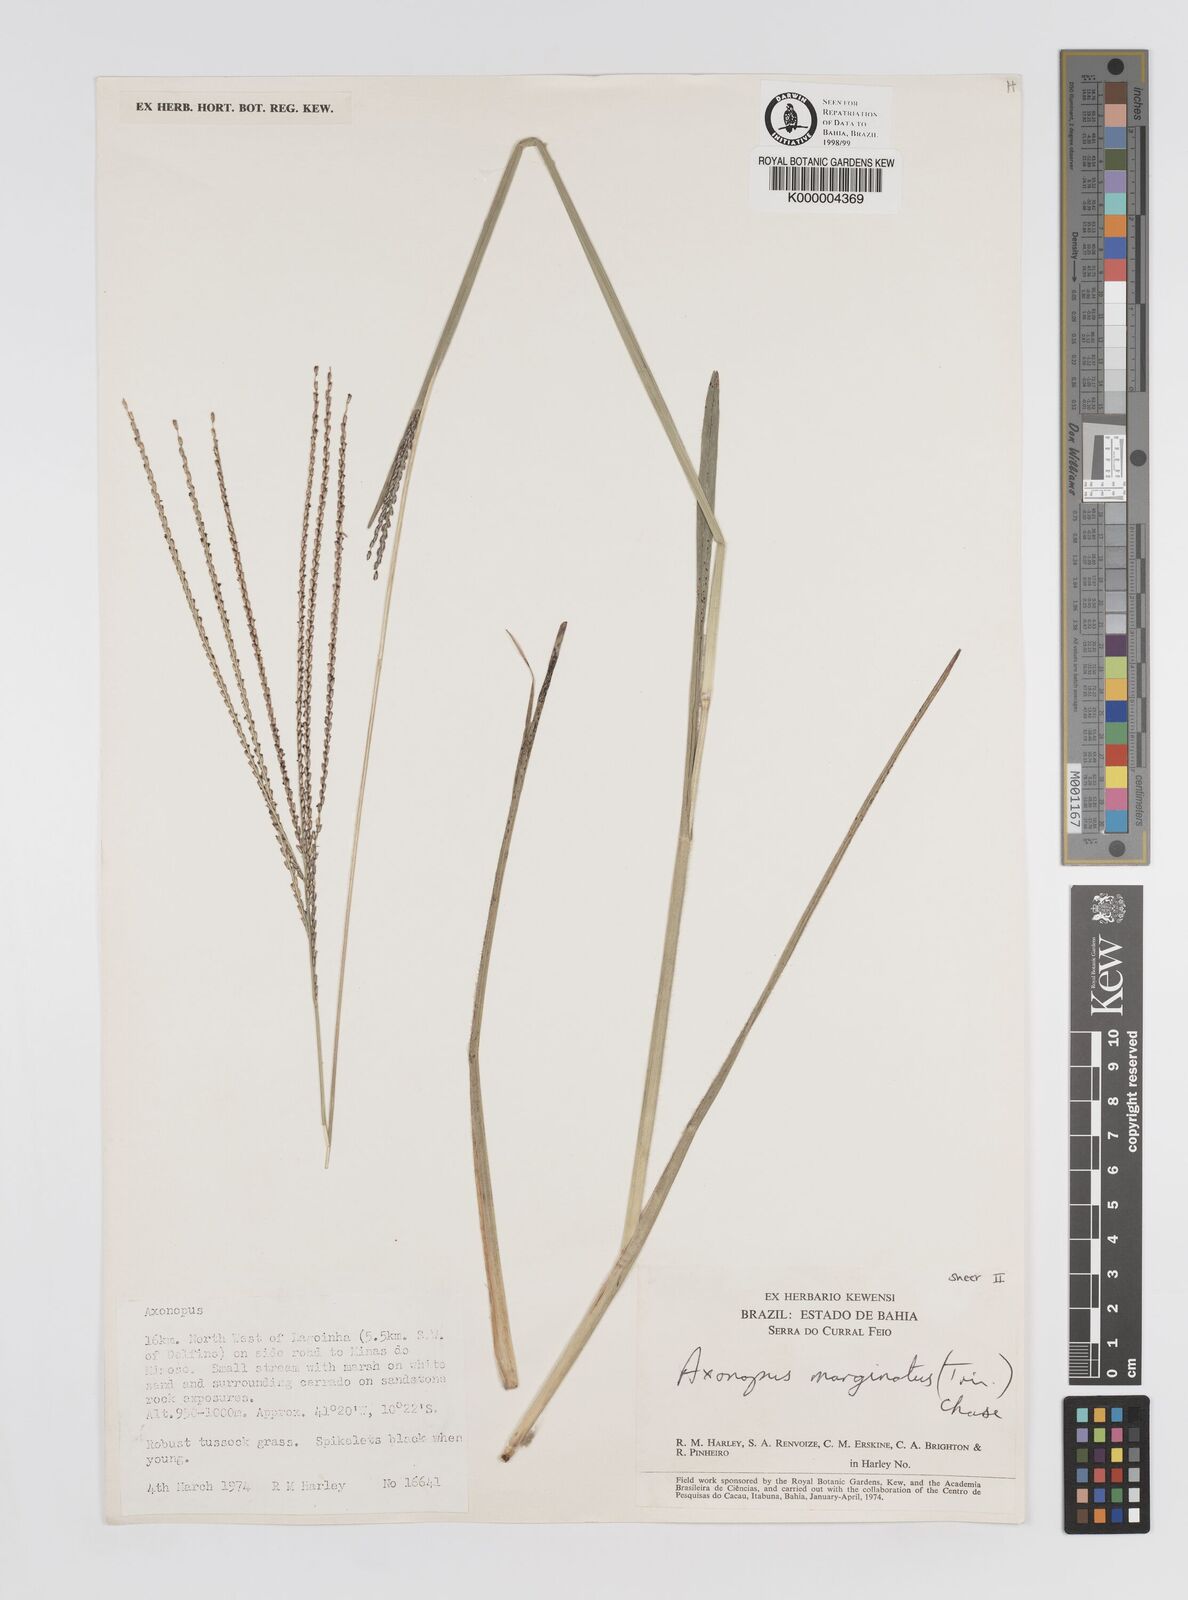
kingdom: Plantae
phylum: Tracheophyta
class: Liliopsida
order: Poales
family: Poaceae
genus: Axonopus
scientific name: Axonopus
